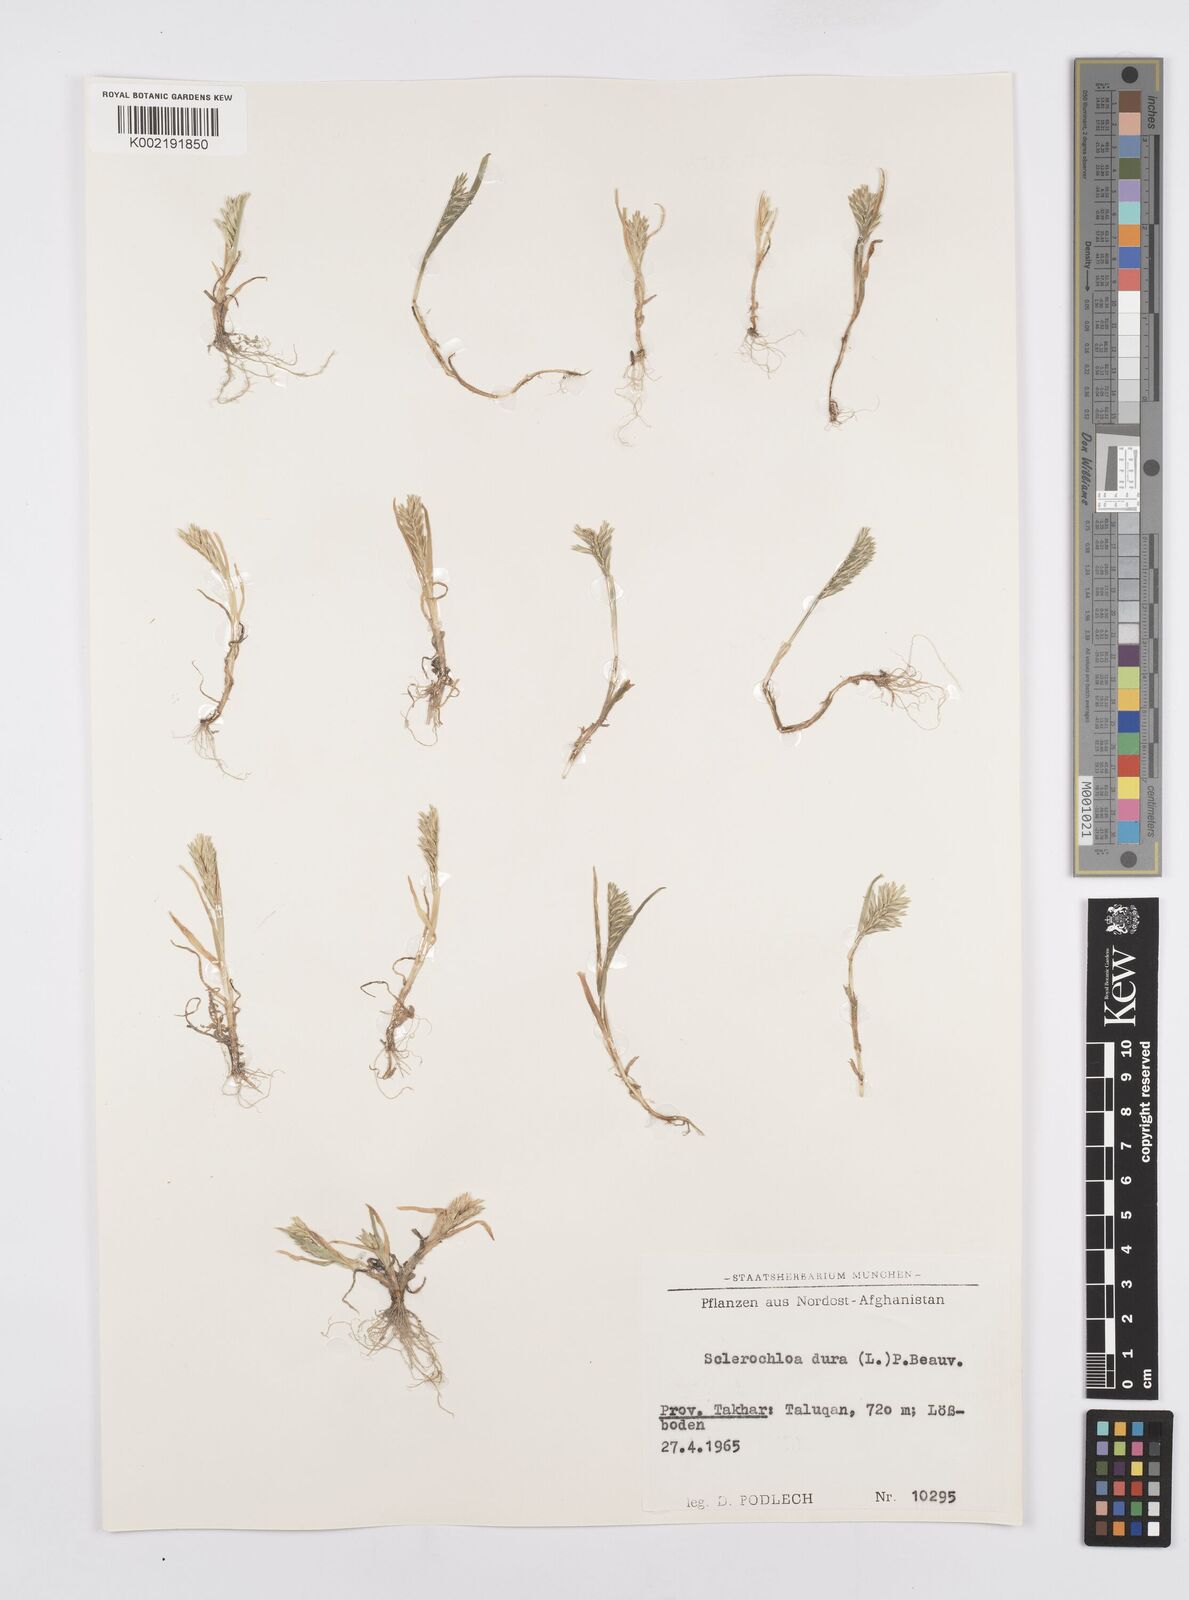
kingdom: Plantae
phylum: Tracheophyta
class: Liliopsida
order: Poales
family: Poaceae
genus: Sclerochloa
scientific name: Sclerochloa dura
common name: Common hardgrass
